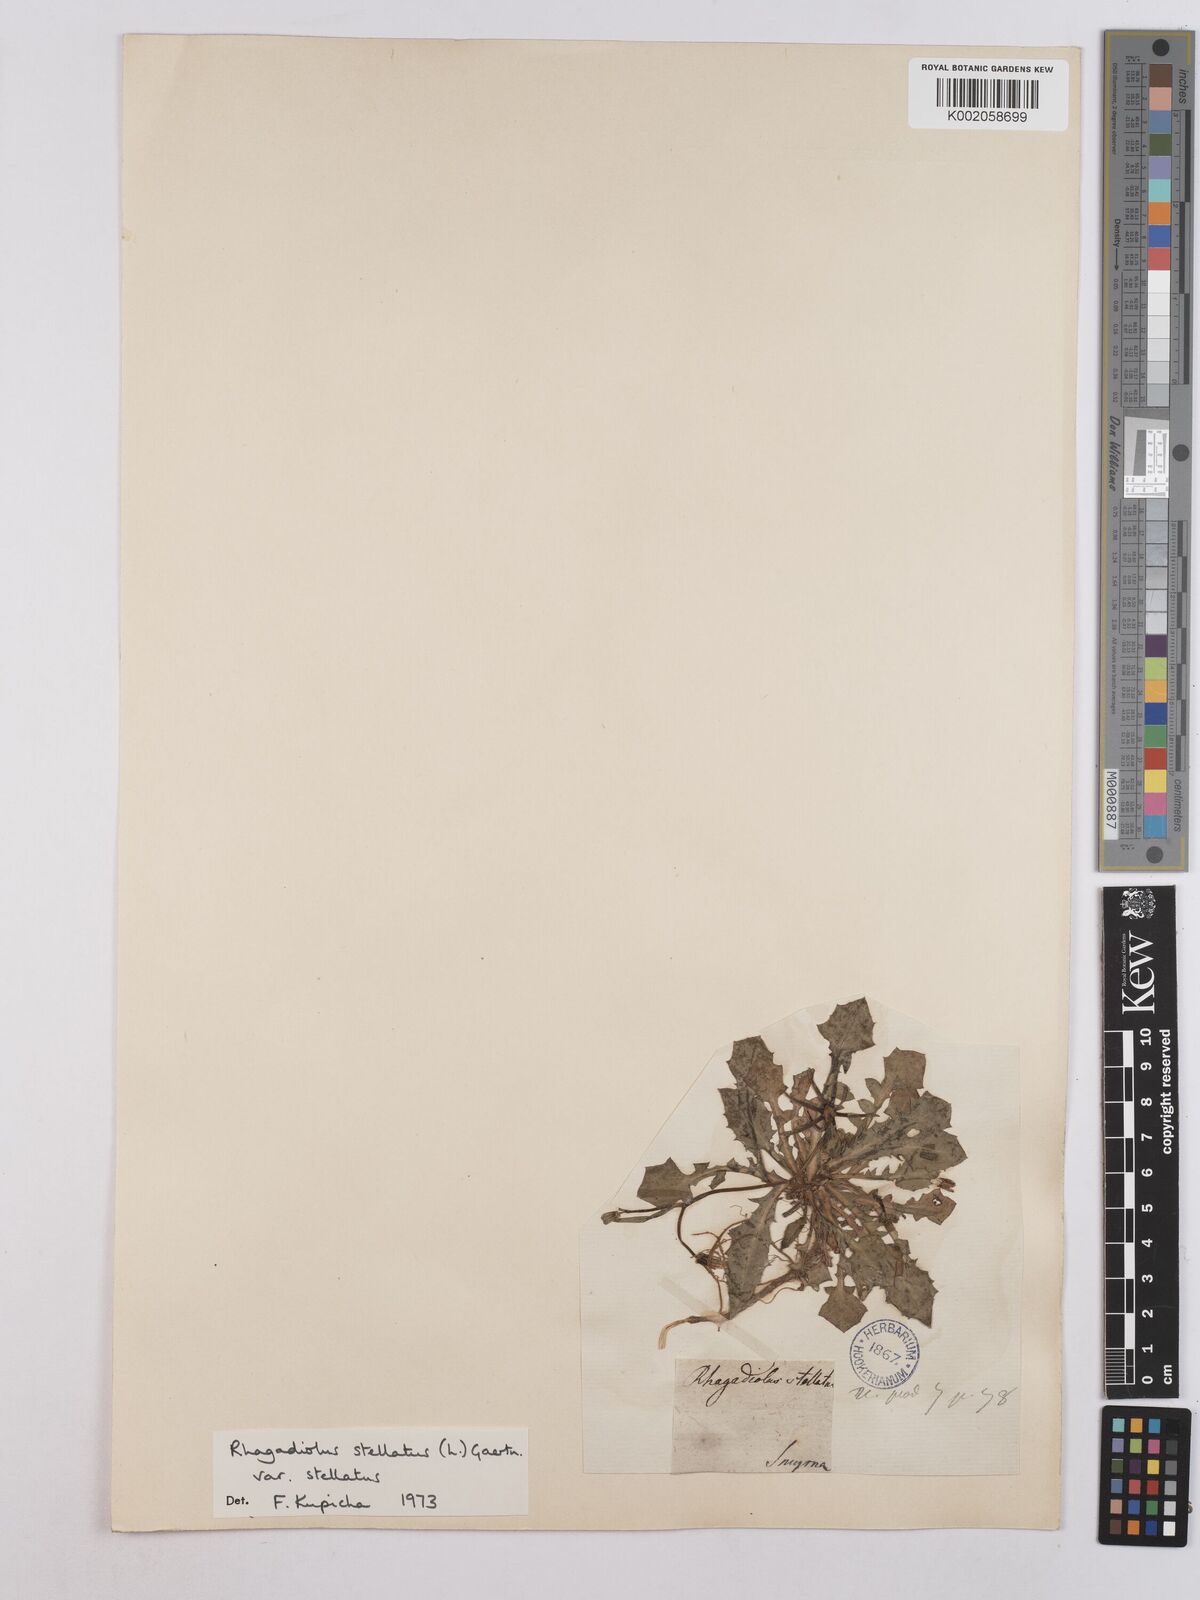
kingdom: Plantae
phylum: Tracheophyta
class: Magnoliopsida
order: Asterales
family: Asteraceae
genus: Rhagadiolus
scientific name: Rhagadiolus stellatus
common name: Star hawkbit
